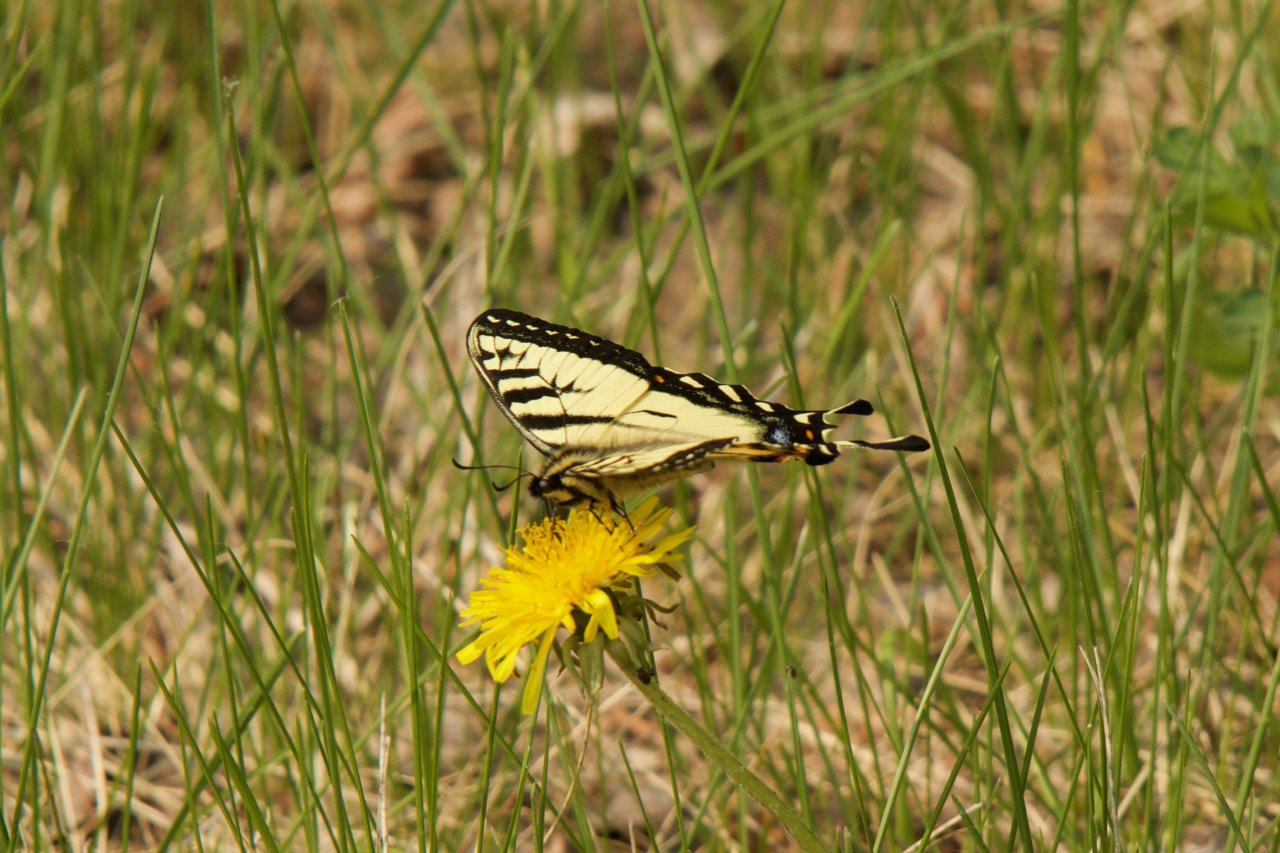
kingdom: Animalia
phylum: Arthropoda
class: Insecta
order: Lepidoptera
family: Papilionidae
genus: Pterourus
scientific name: Pterourus canadensis
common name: Canadian Tiger Swallowtail
